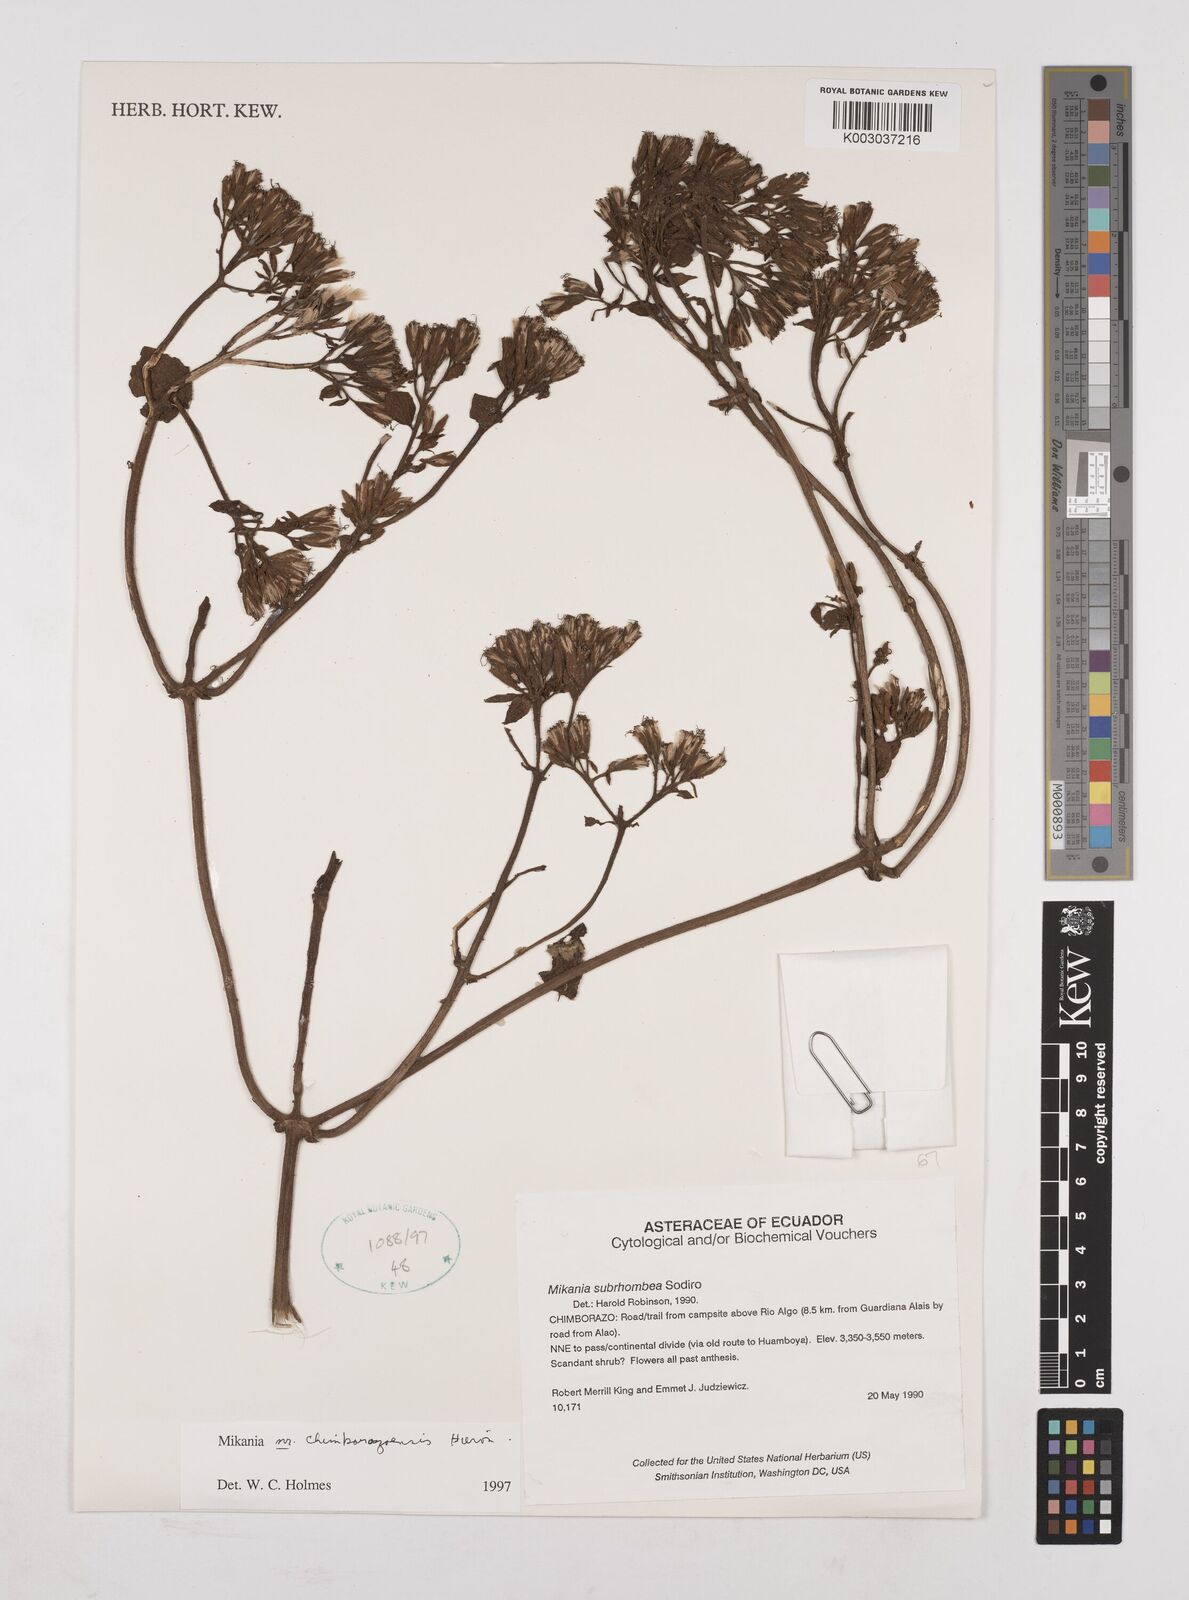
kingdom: Plantae
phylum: Tracheophyta
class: Magnoliopsida
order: Asterales
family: Asteraceae
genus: Mikania
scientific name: Mikania chimborazensis
